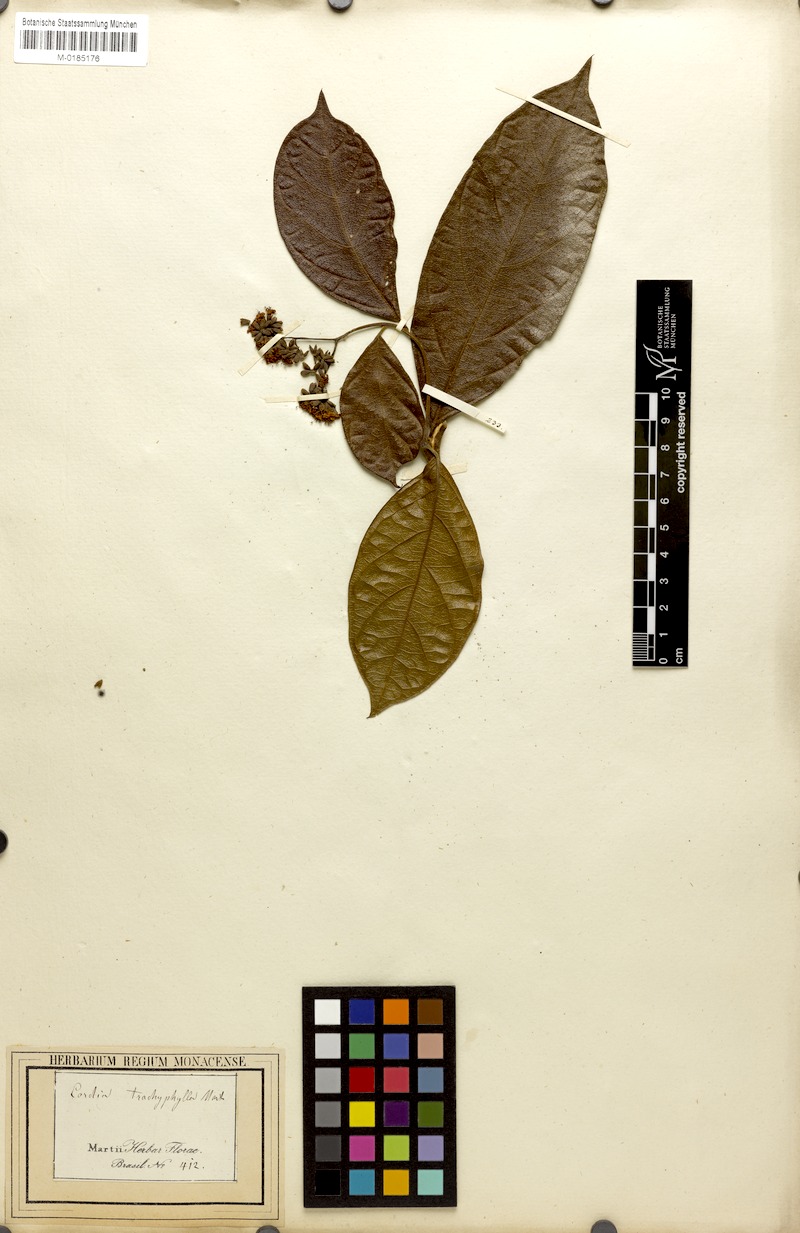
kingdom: Plantae
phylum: Tracheophyta
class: Magnoliopsida
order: Boraginales
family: Cordiaceae
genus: Cordia
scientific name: Cordia trachyphylla
